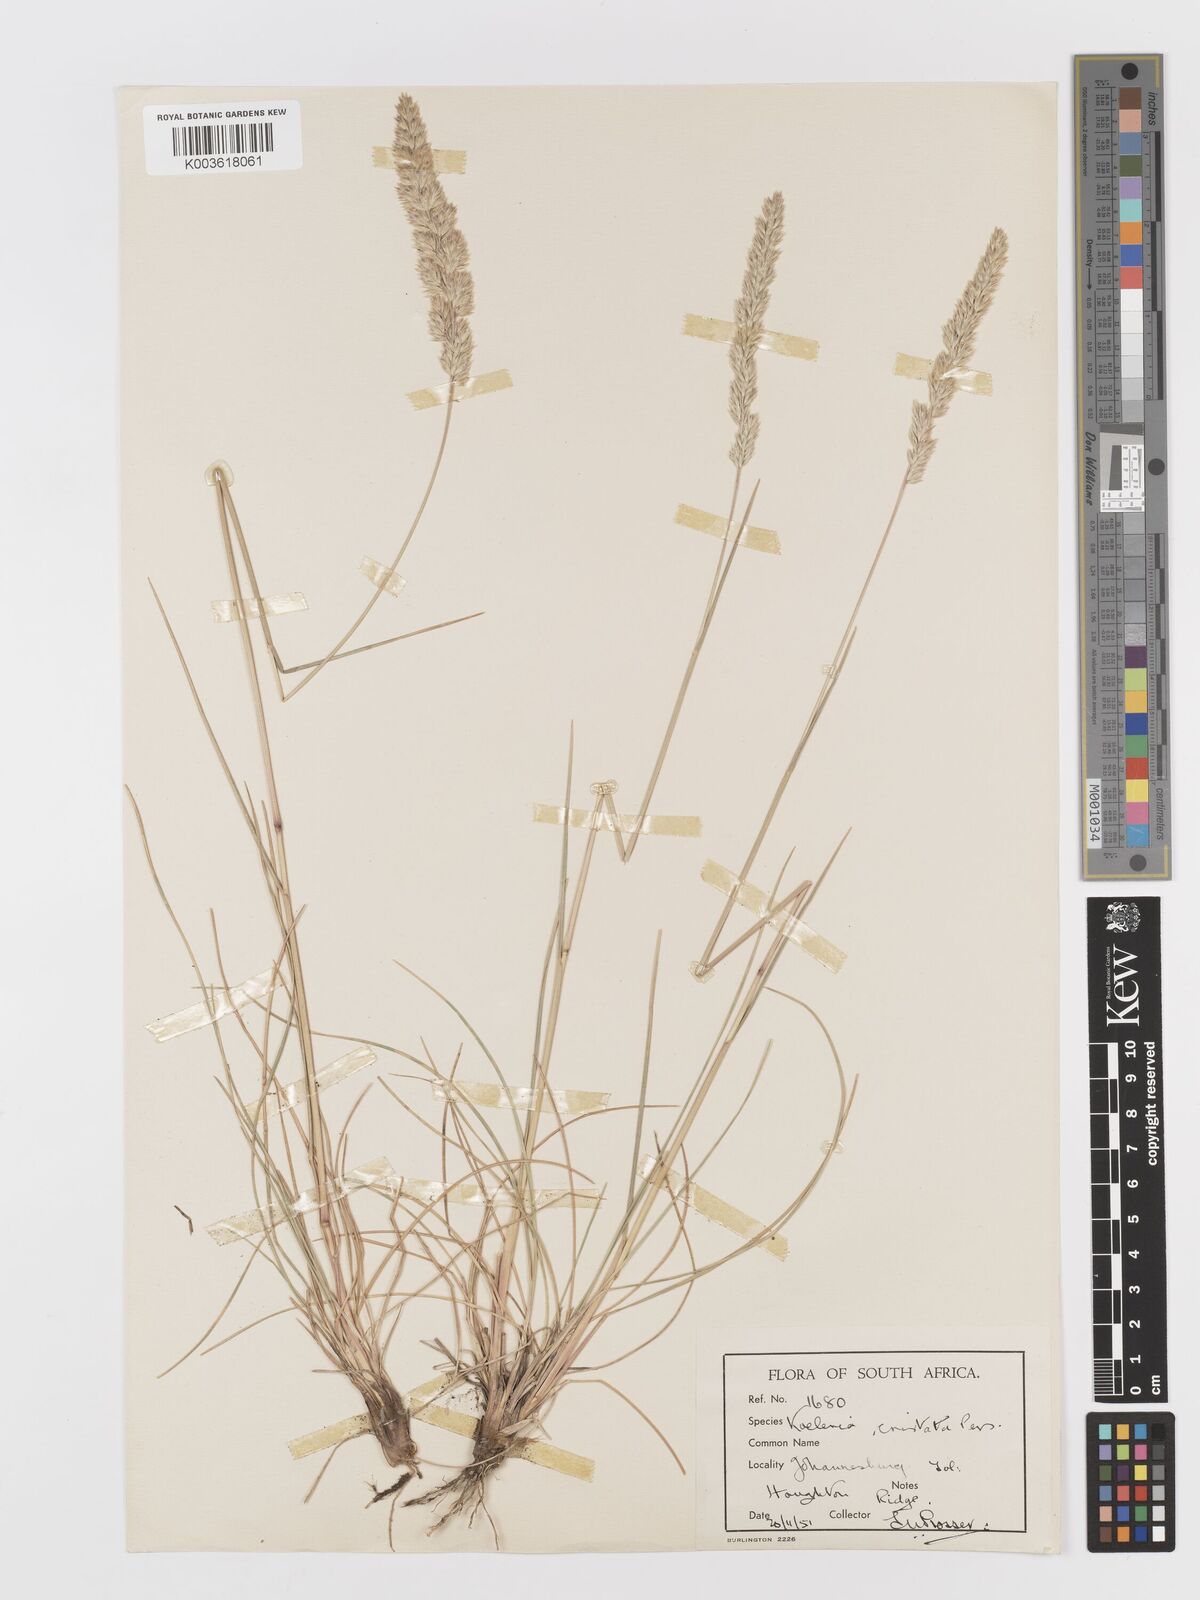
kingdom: Plantae
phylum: Tracheophyta
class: Liliopsida
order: Poales
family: Poaceae
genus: Koeleria
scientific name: Koeleria capensis
